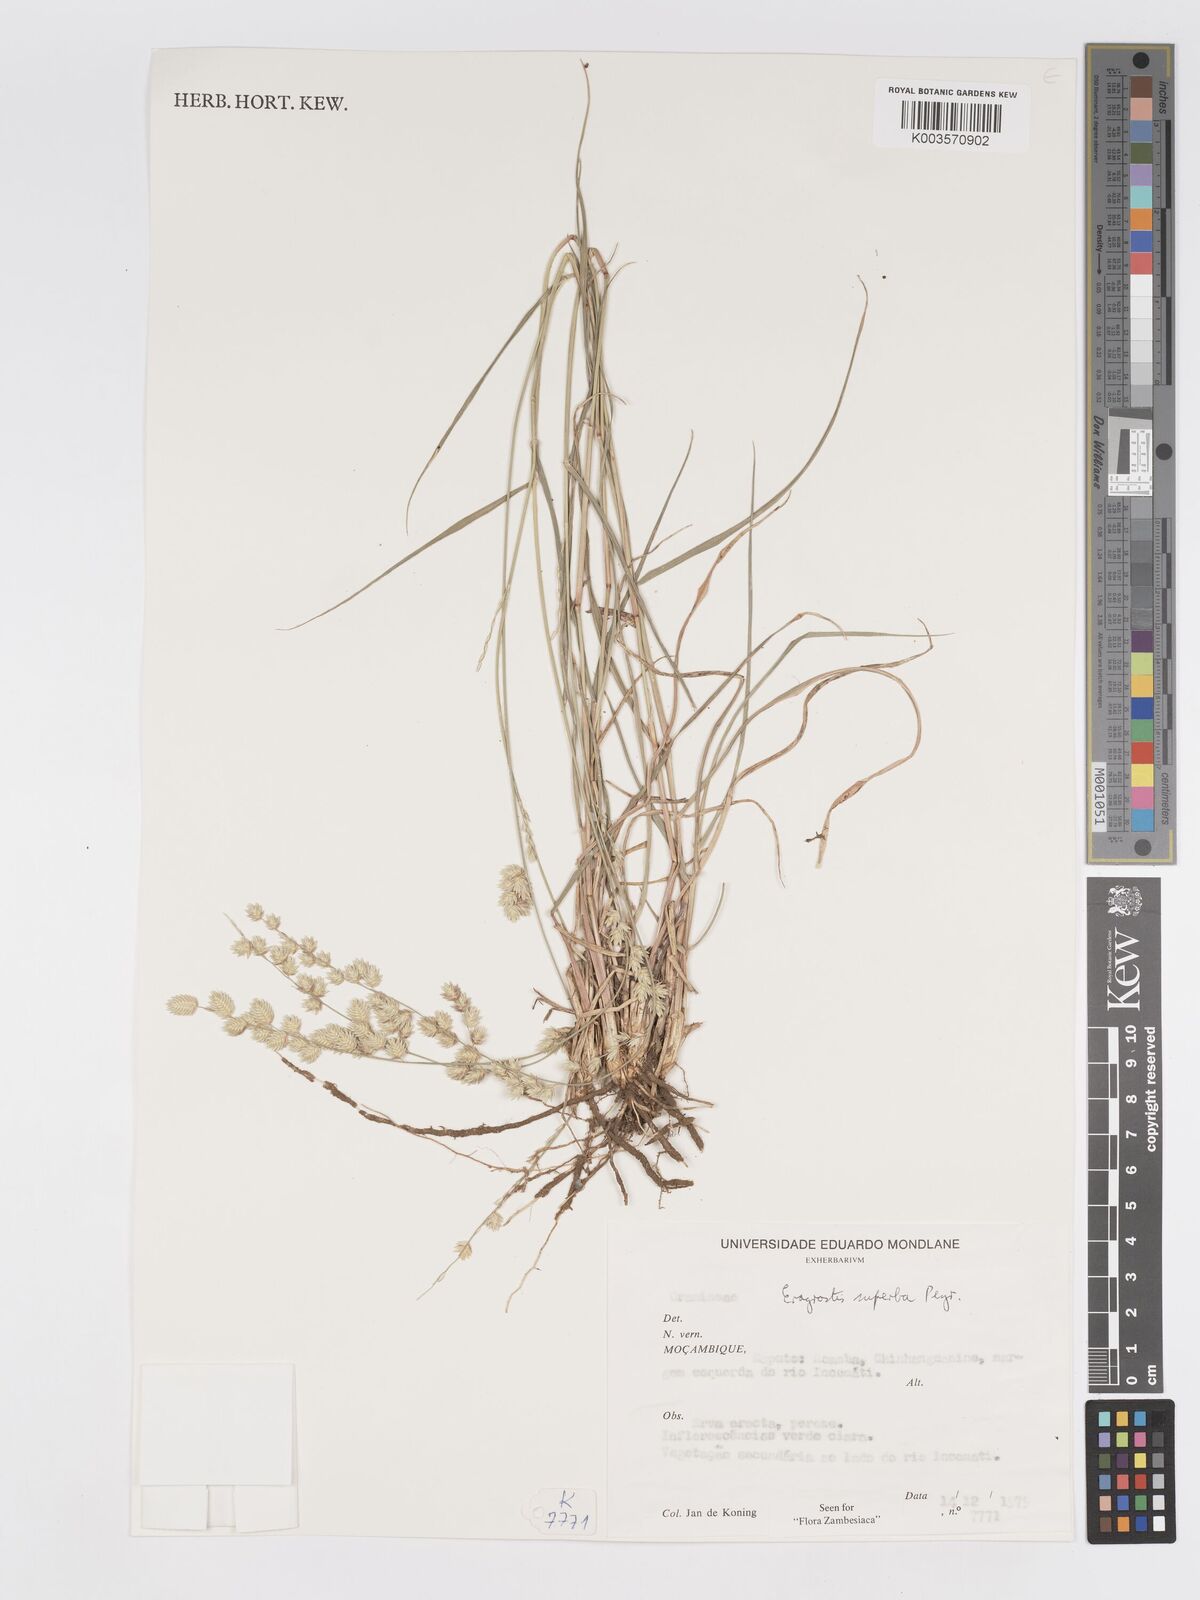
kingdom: Plantae
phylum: Tracheophyta
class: Liliopsida
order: Poales
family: Poaceae
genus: Eragrostis
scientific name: Eragrostis superba
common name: Wilman lovegrass
